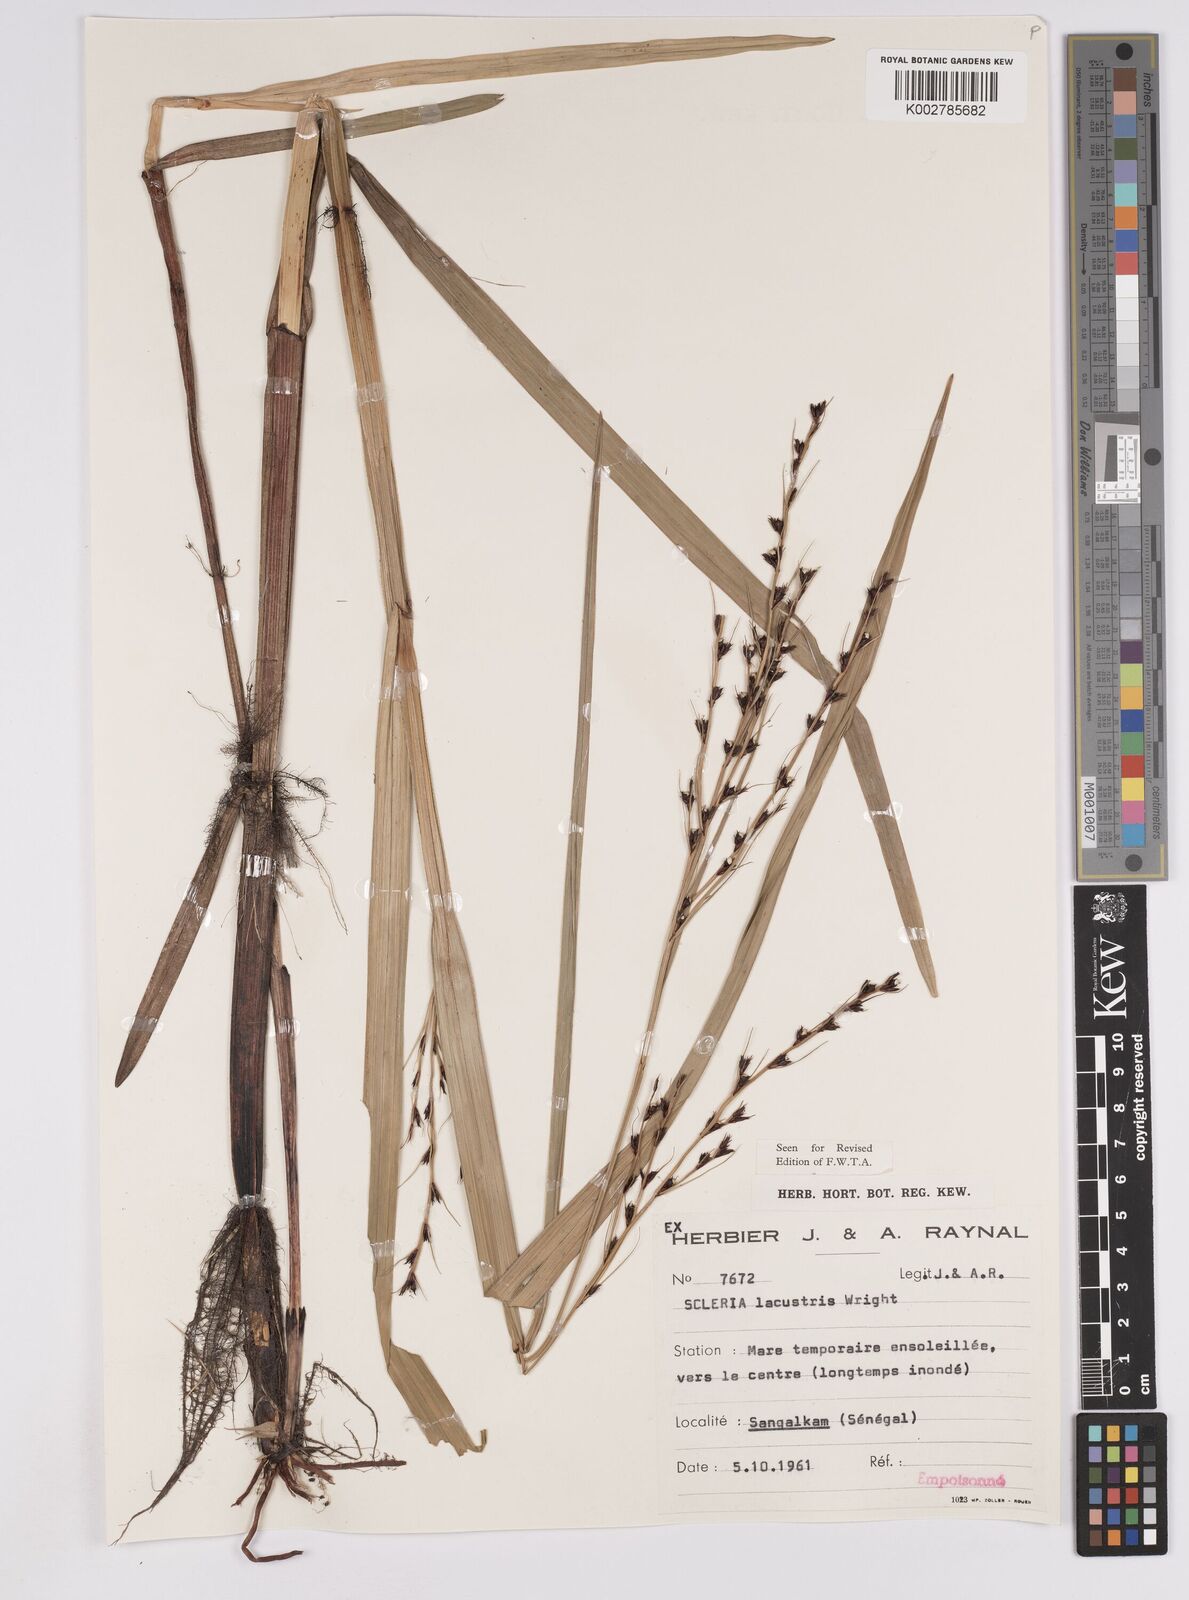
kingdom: Plantae
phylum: Tracheophyta
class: Liliopsida
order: Poales
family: Cyperaceae
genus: Scleria
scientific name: Scleria lacustris
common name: Lakeshore nutrush
